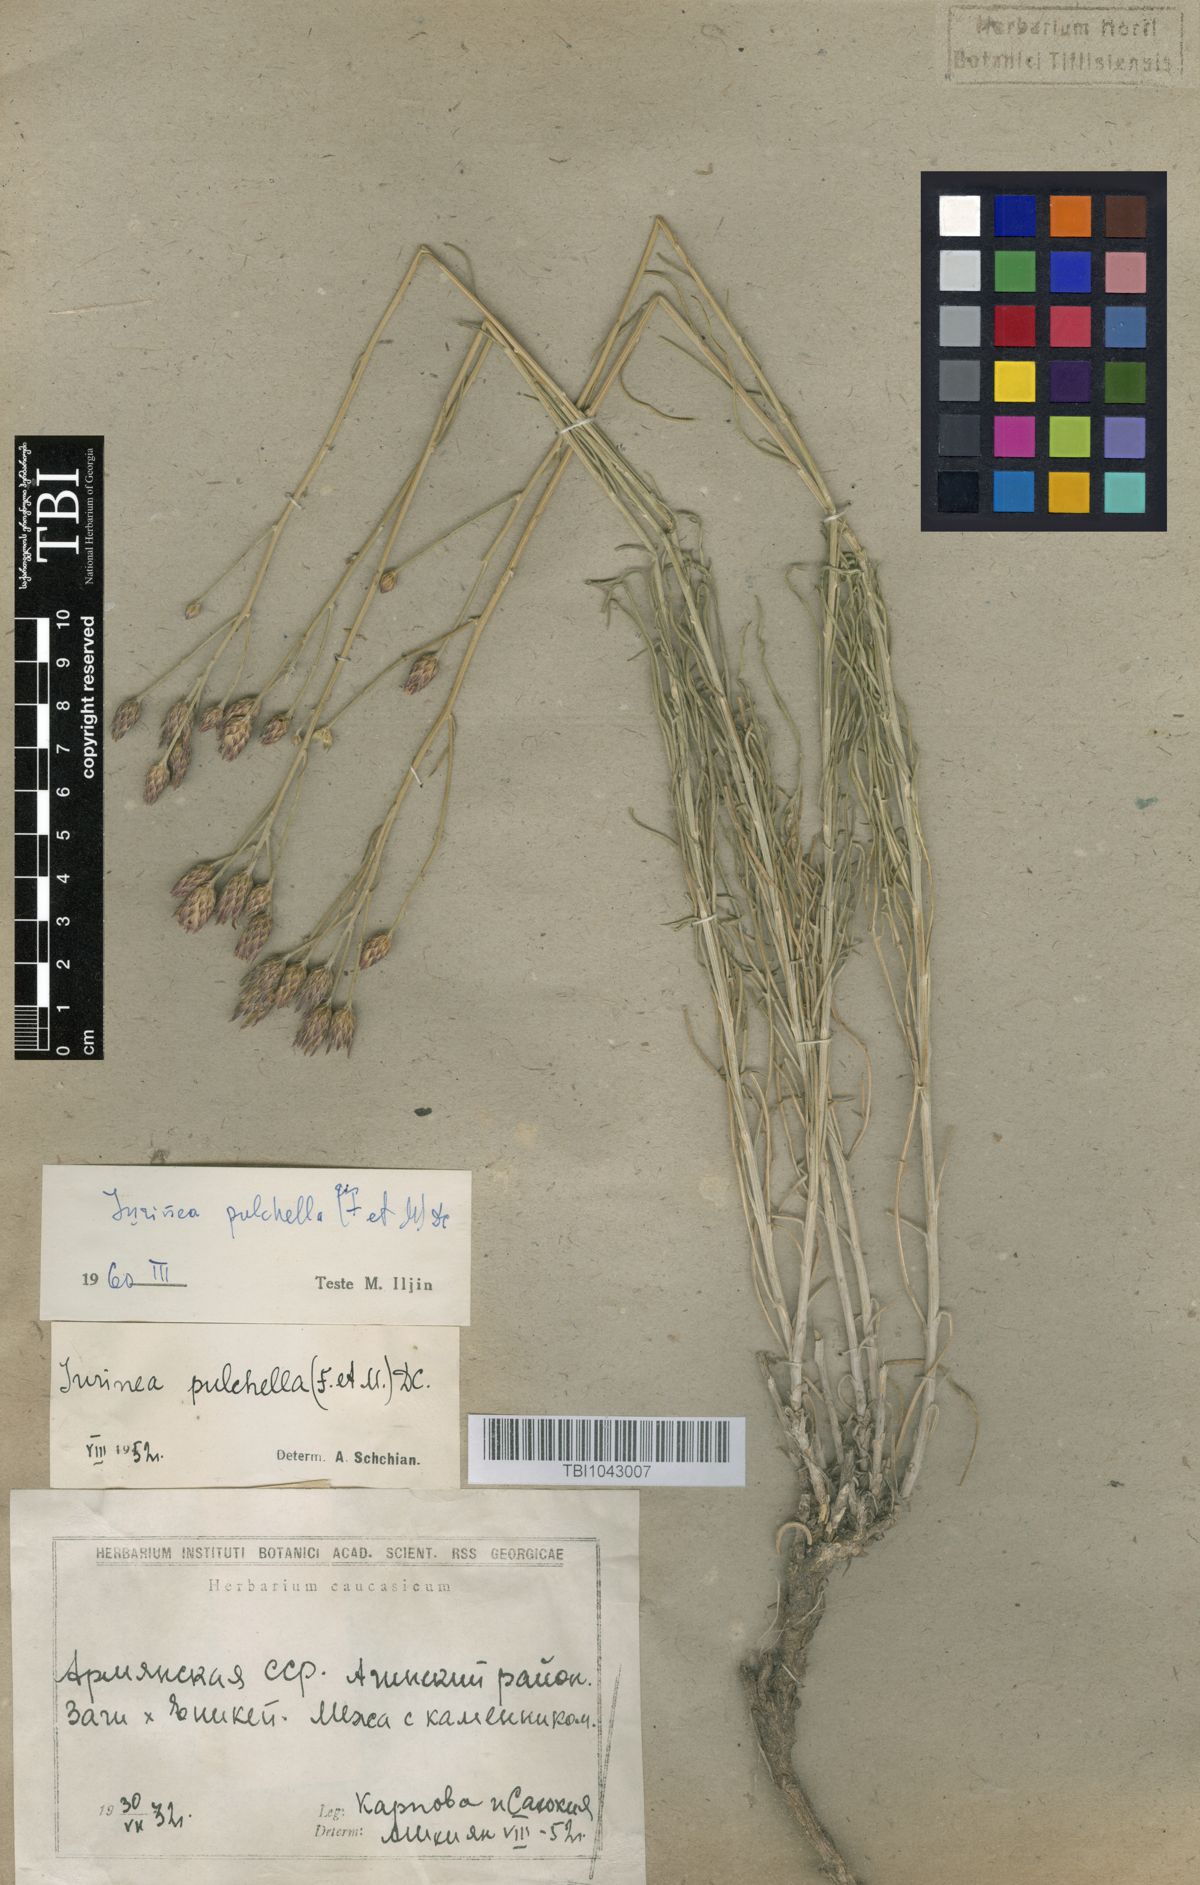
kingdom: Plantae
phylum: Tracheophyta
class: Magnoliopsida
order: Asterales
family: Asteraceae
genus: Jurinea
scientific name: Jurinea pulchella
